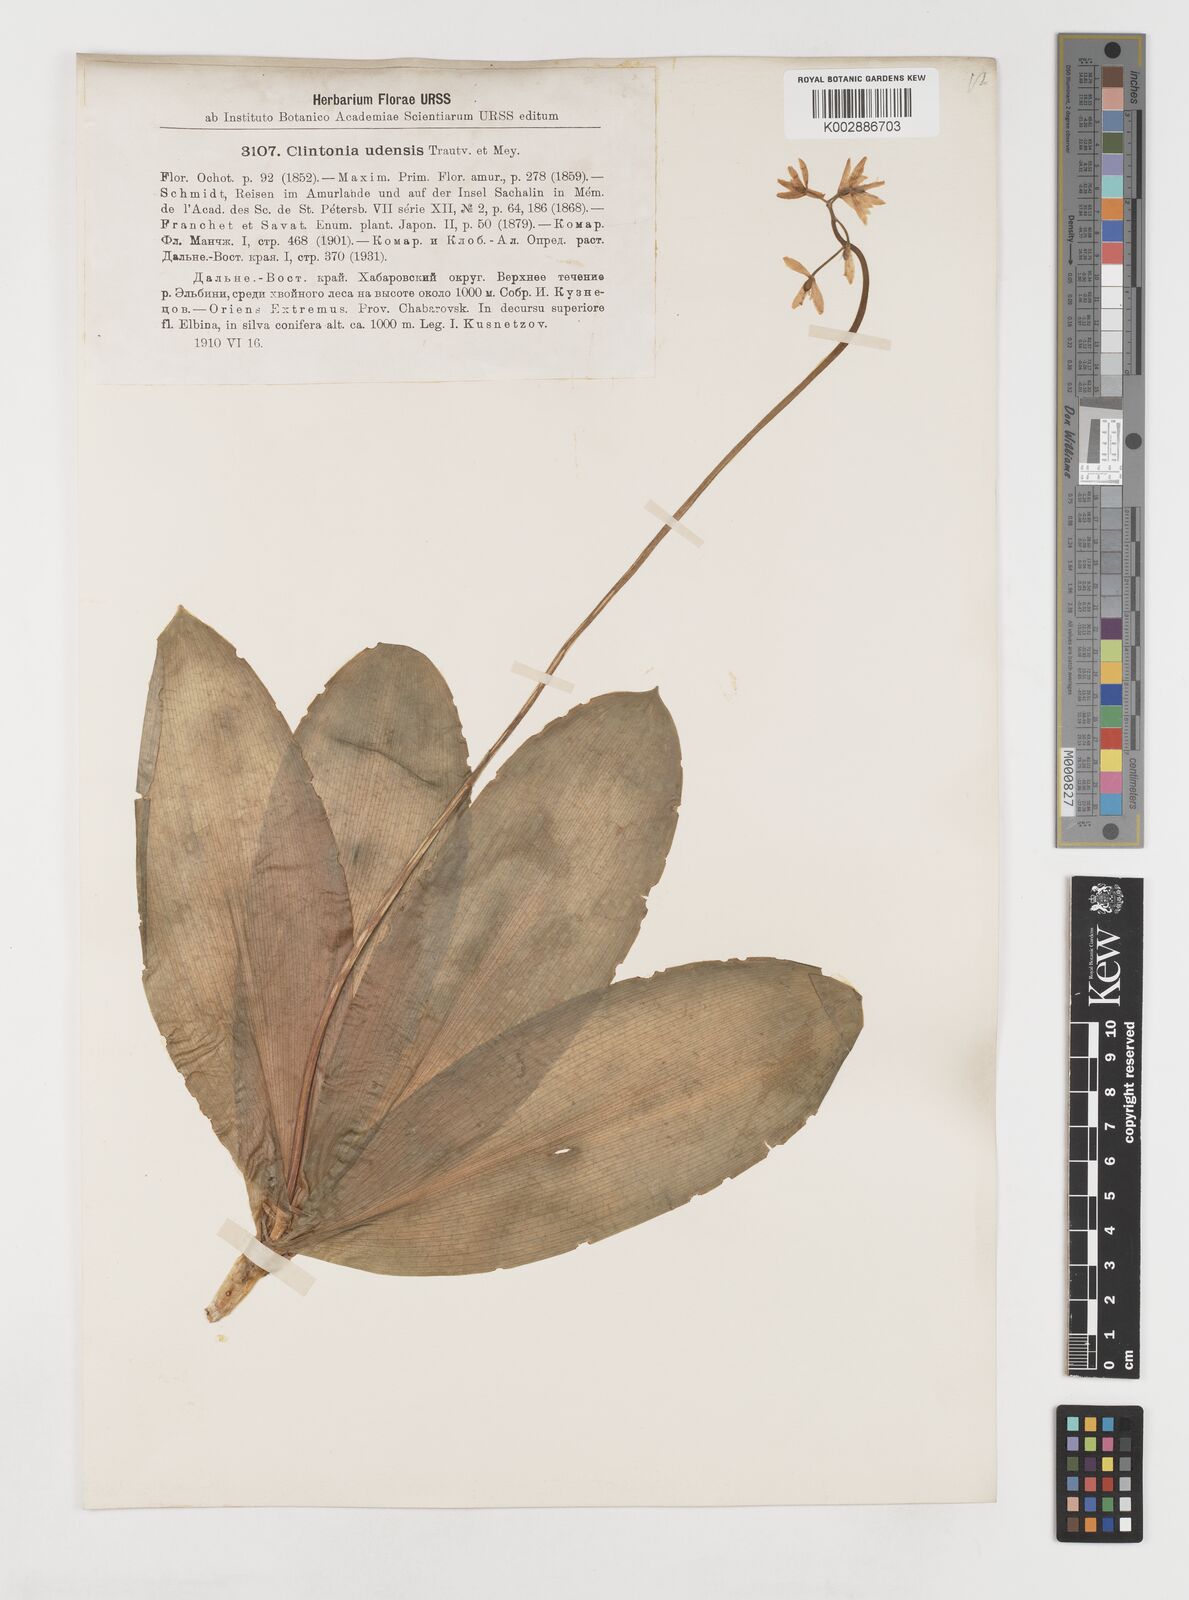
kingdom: Plantae
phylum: Tracheophyta
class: Liliopsida
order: Liliales
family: Liliaceae
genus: Clintonia
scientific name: Clintonia udensis
